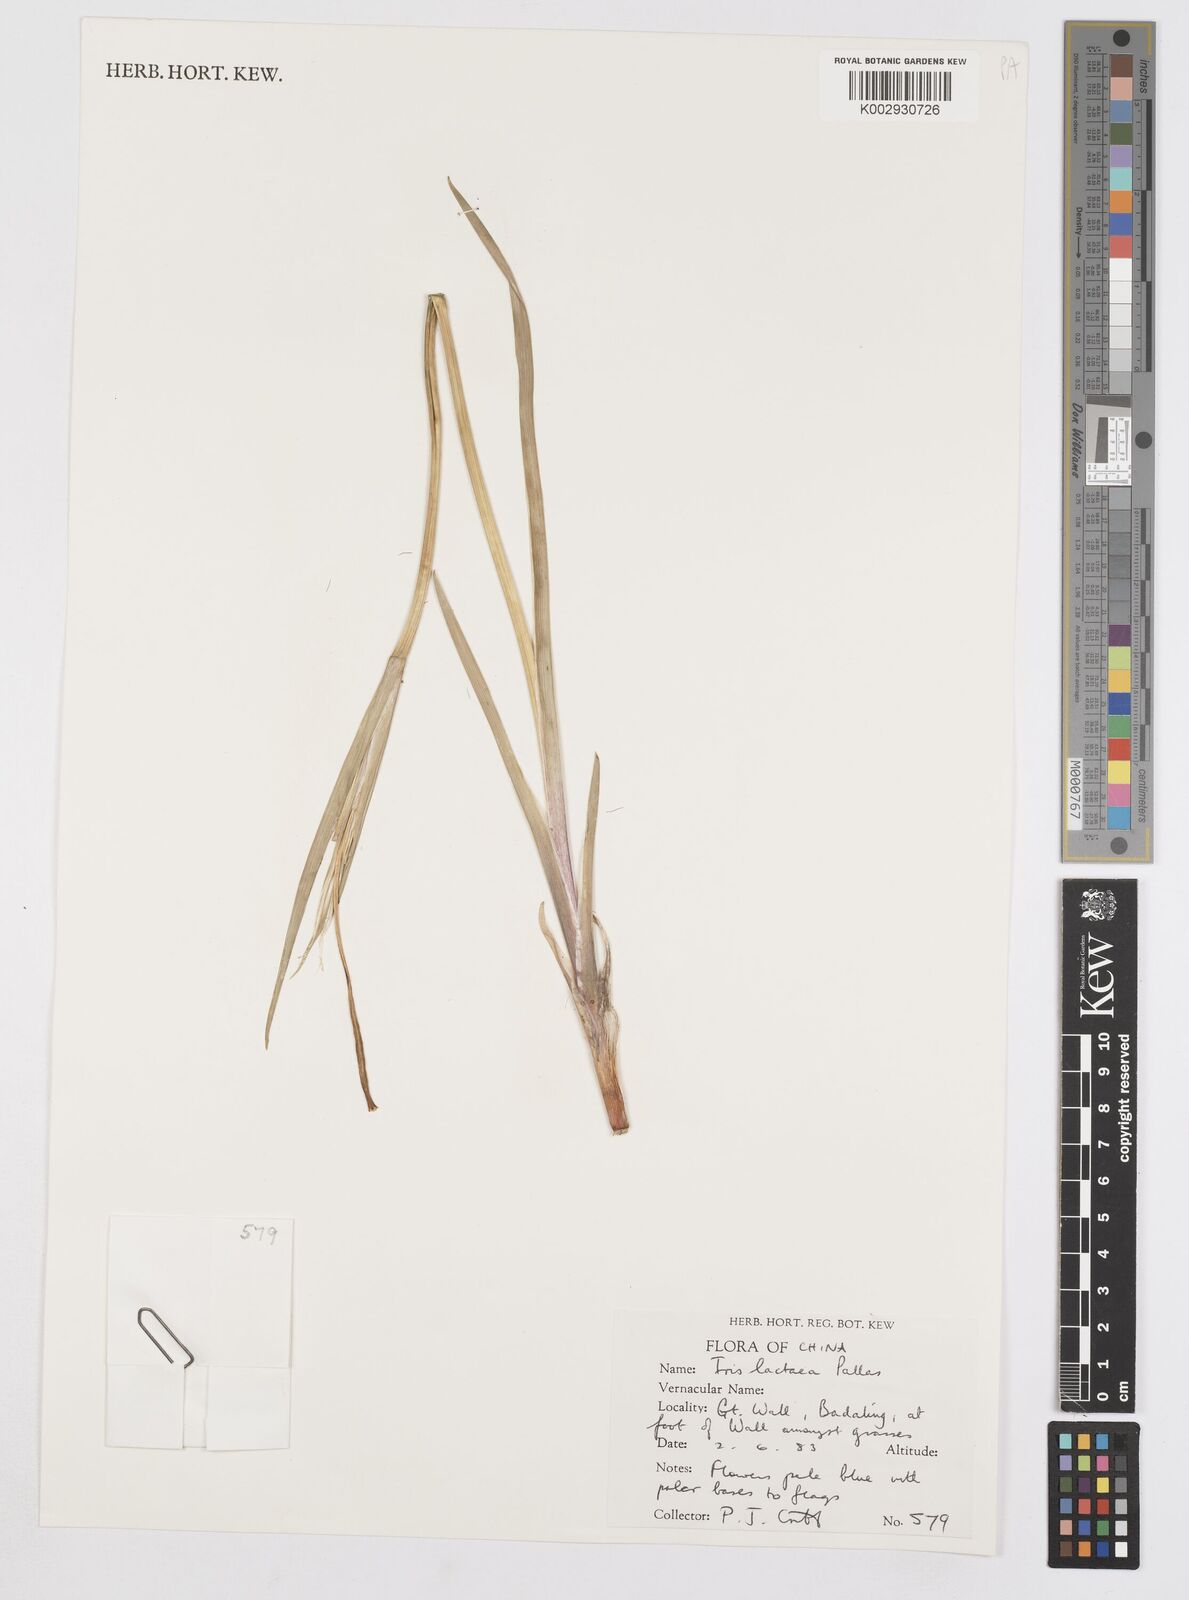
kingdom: Plantae
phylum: Tracheophyta
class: Liliopsida
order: Asparagales
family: Iridaceae
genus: Iris
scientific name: Iris lactea
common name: White-flower chinese iris
